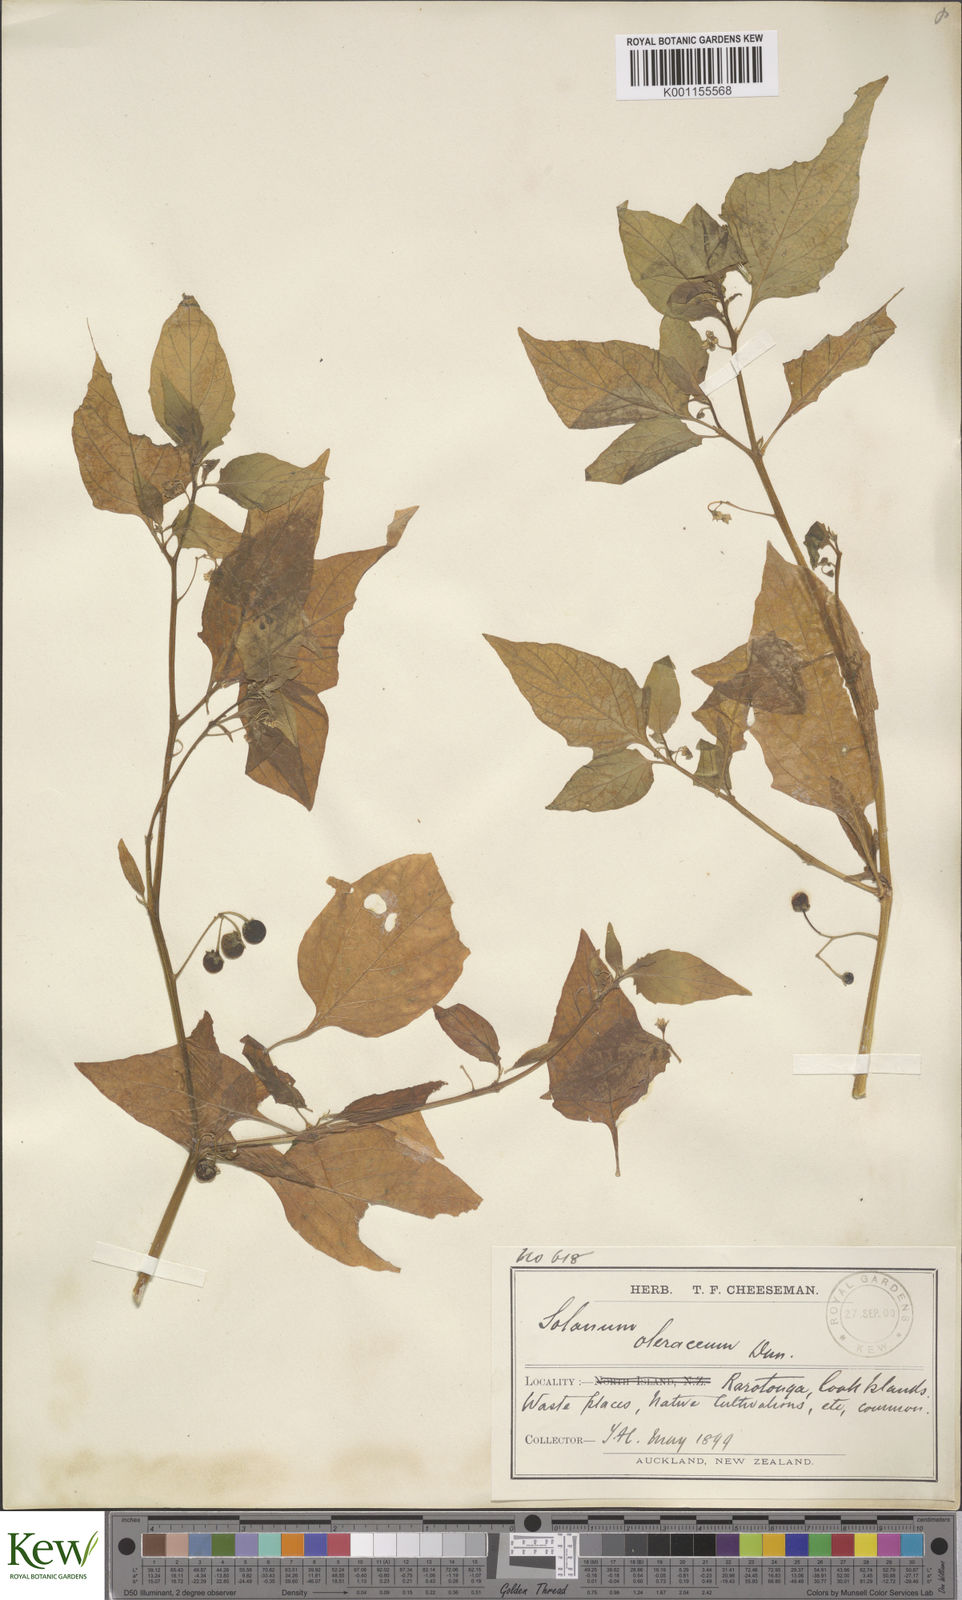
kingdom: Plantae
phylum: Tracheophyta
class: Magnoliopsida
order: Solanales
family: Solanaceae
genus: Solanum
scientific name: Solanum americanum
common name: American black nightshade
